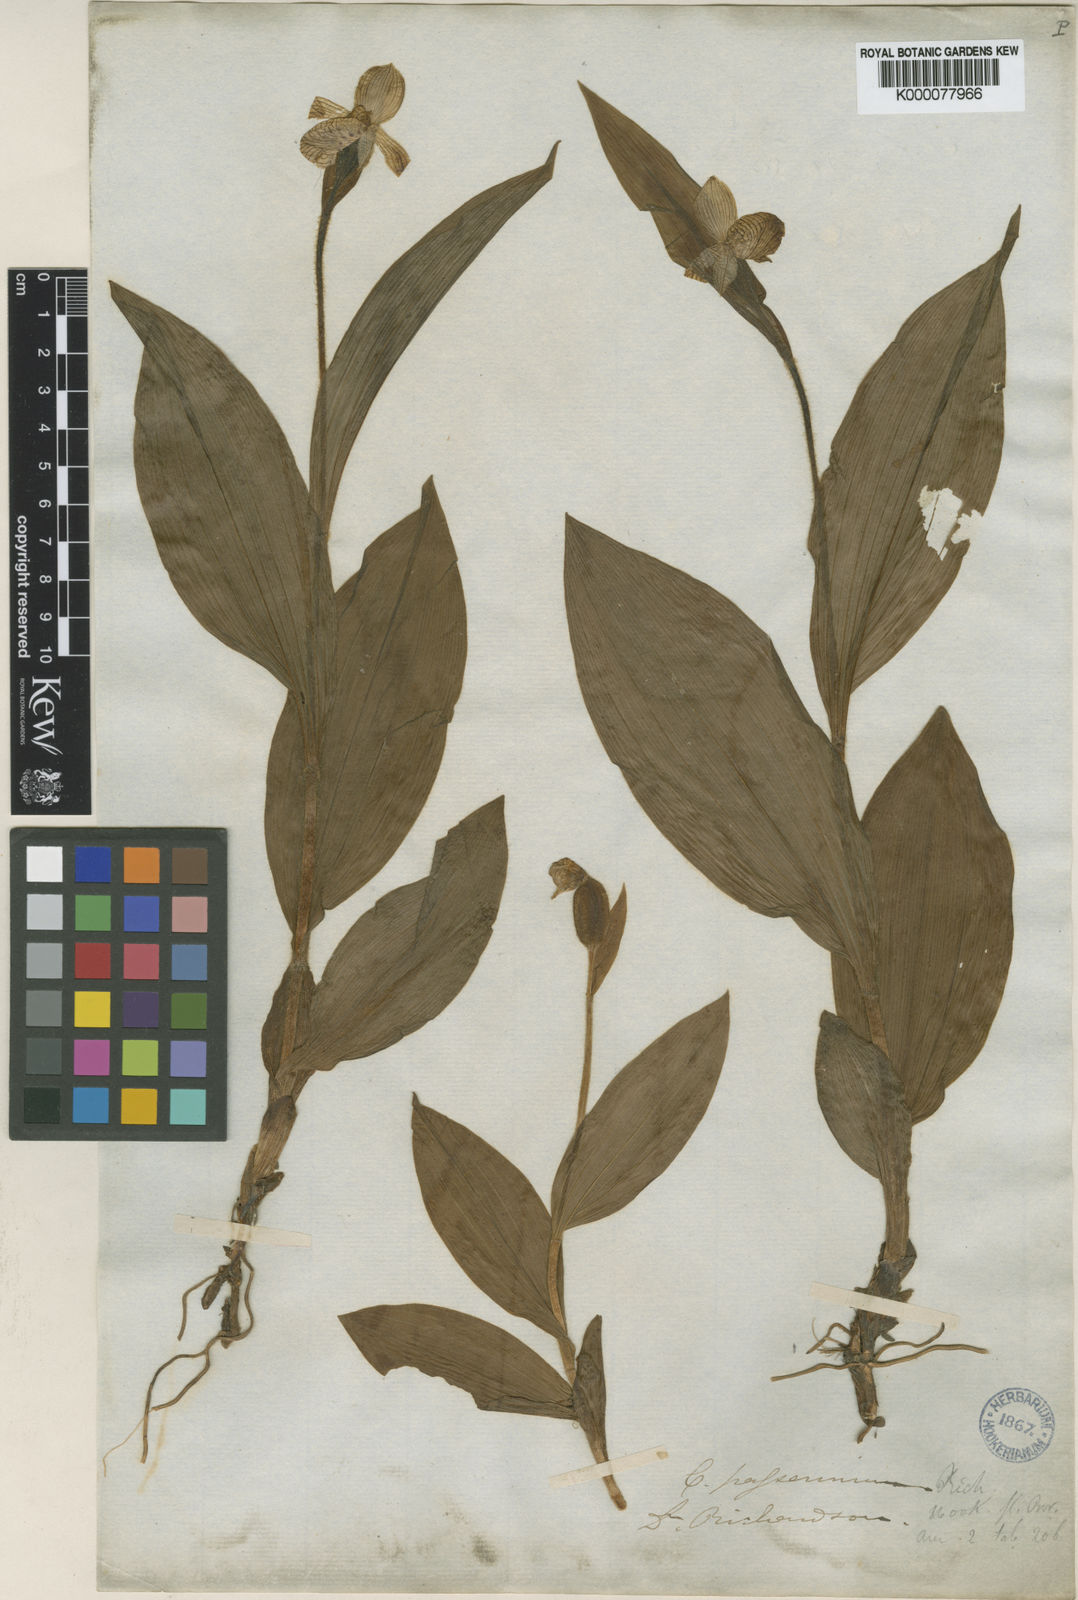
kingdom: Plantae
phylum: Tracheophyta
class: Liliopsida
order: Asparagales
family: Orchidaceae
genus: Cypripedium
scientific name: Cypripedium passerinum
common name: Sparrow's-egg lady's-slipper
